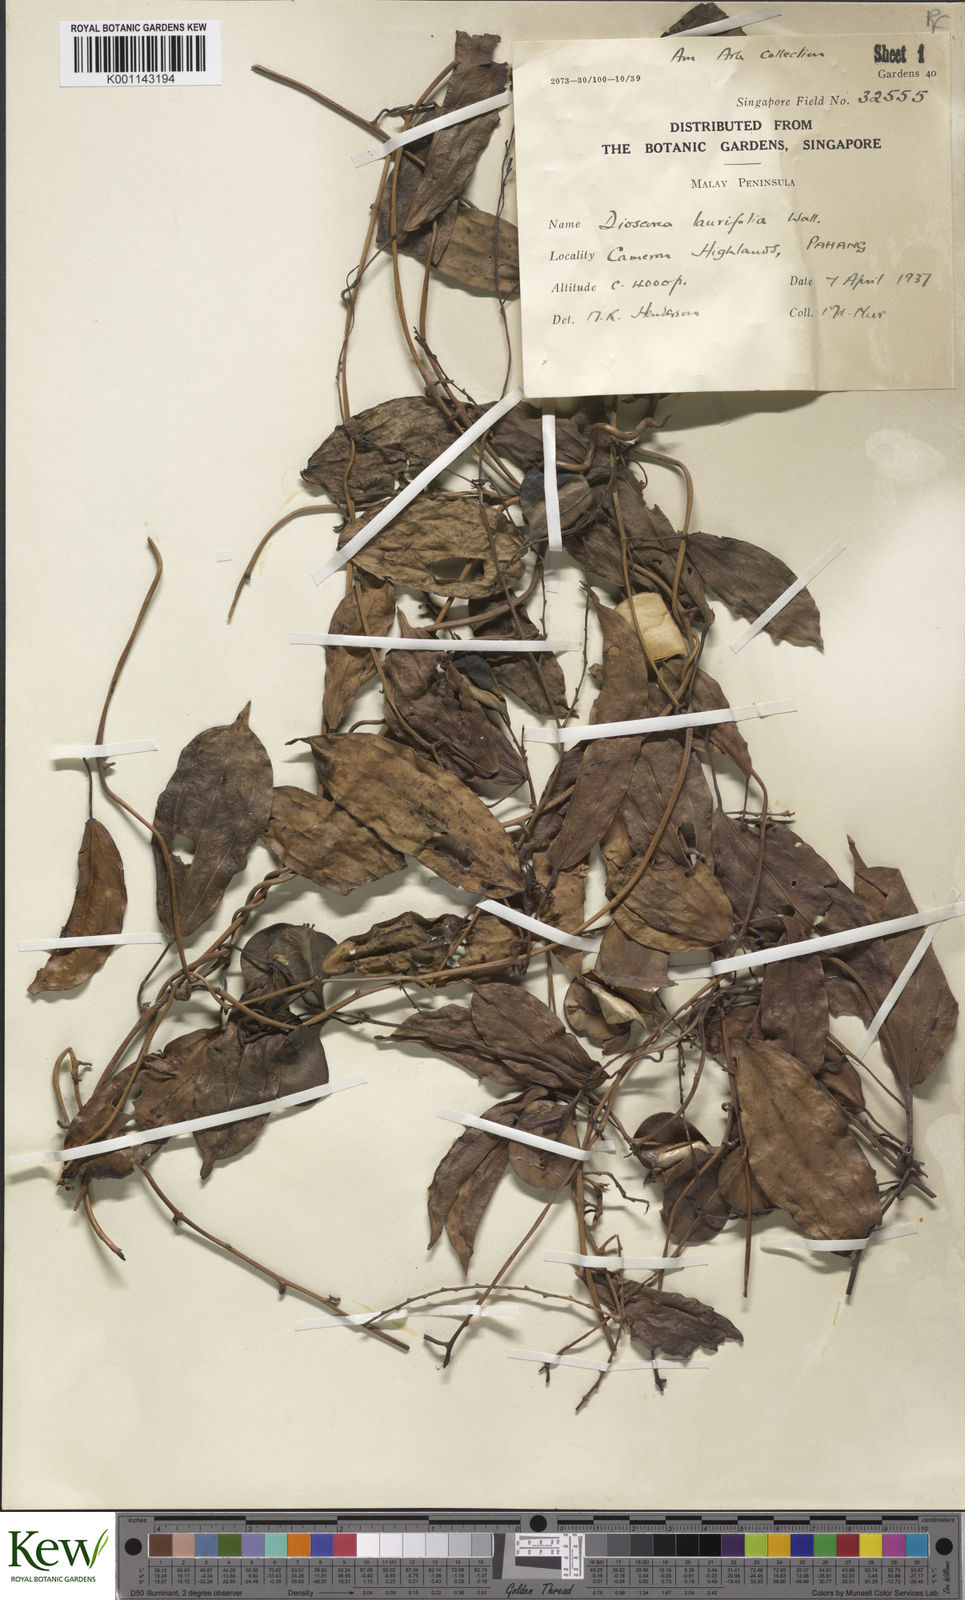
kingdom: Plantae
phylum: Tracheophyta
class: Liliopsida
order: Dioscoreales
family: Dioscoreaceae
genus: Dioscorea
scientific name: Dioscorea laurifolia
